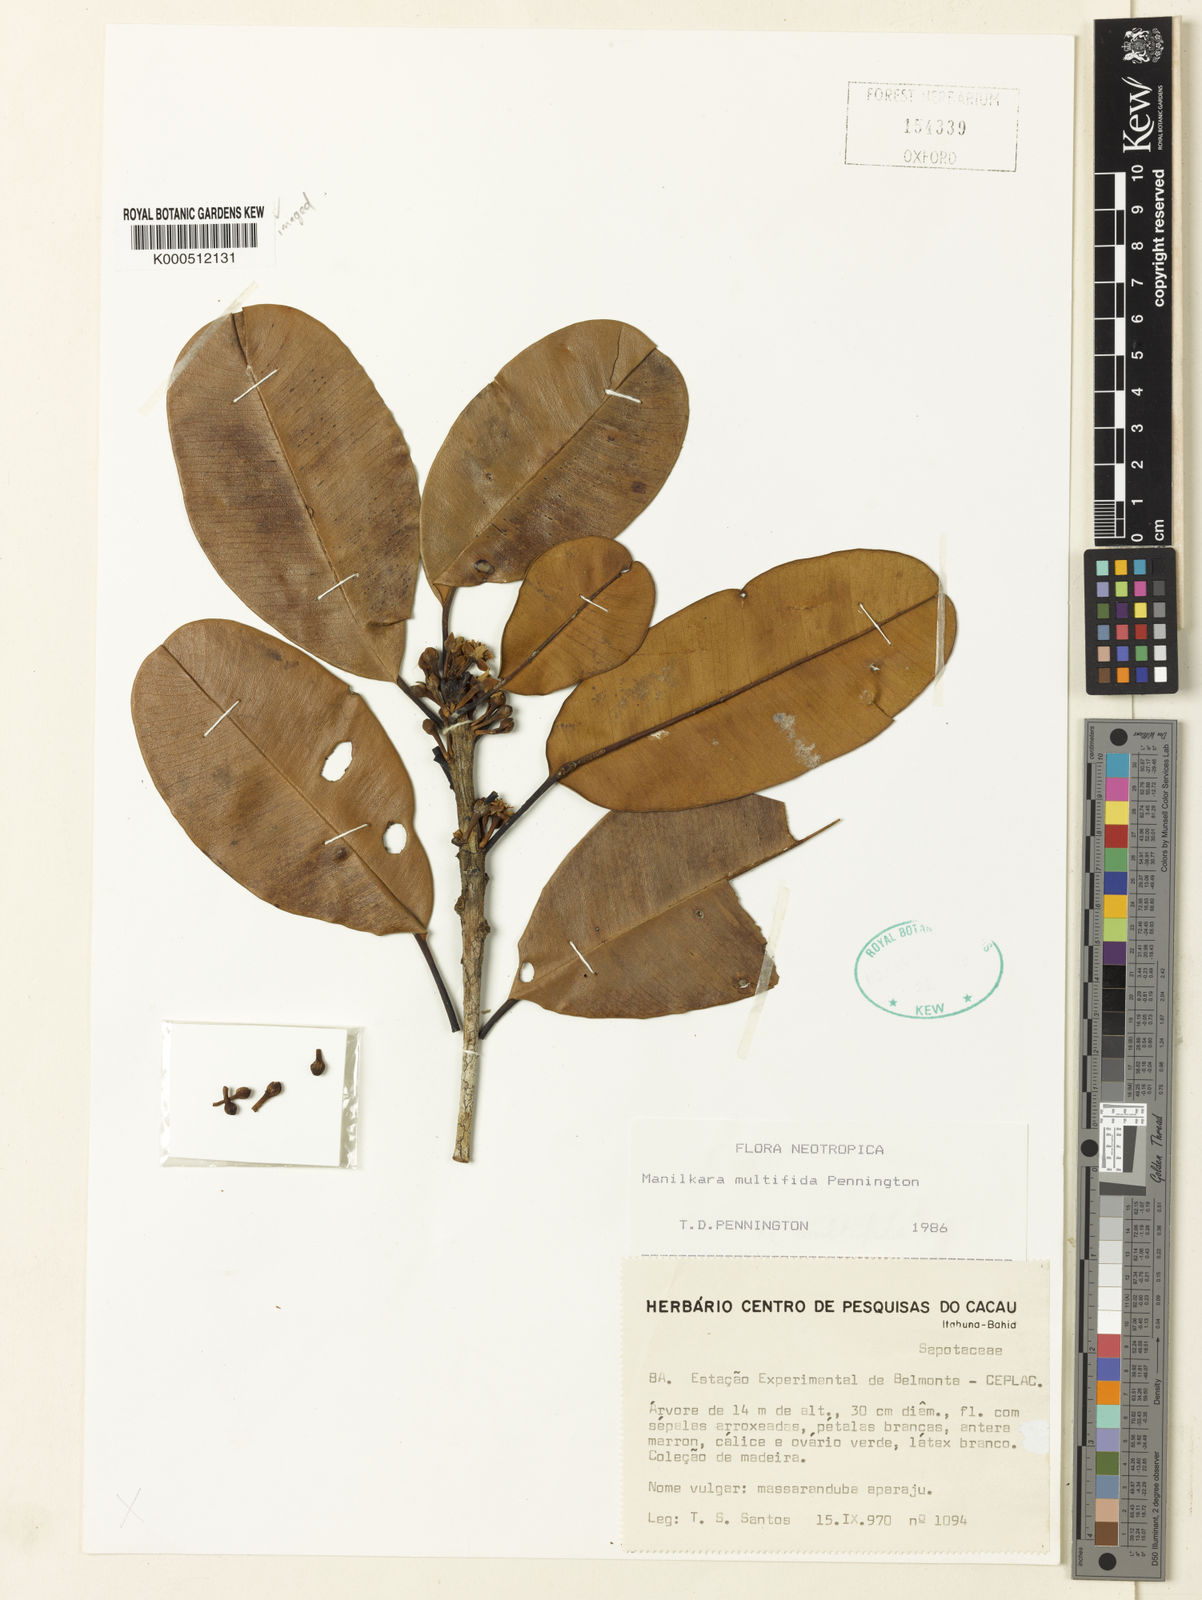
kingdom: Plantae
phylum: Tracheophyta
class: Magnoliopsida
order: Ericales
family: Sapotaceae
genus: Manilkara
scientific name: Manilkara multifida
